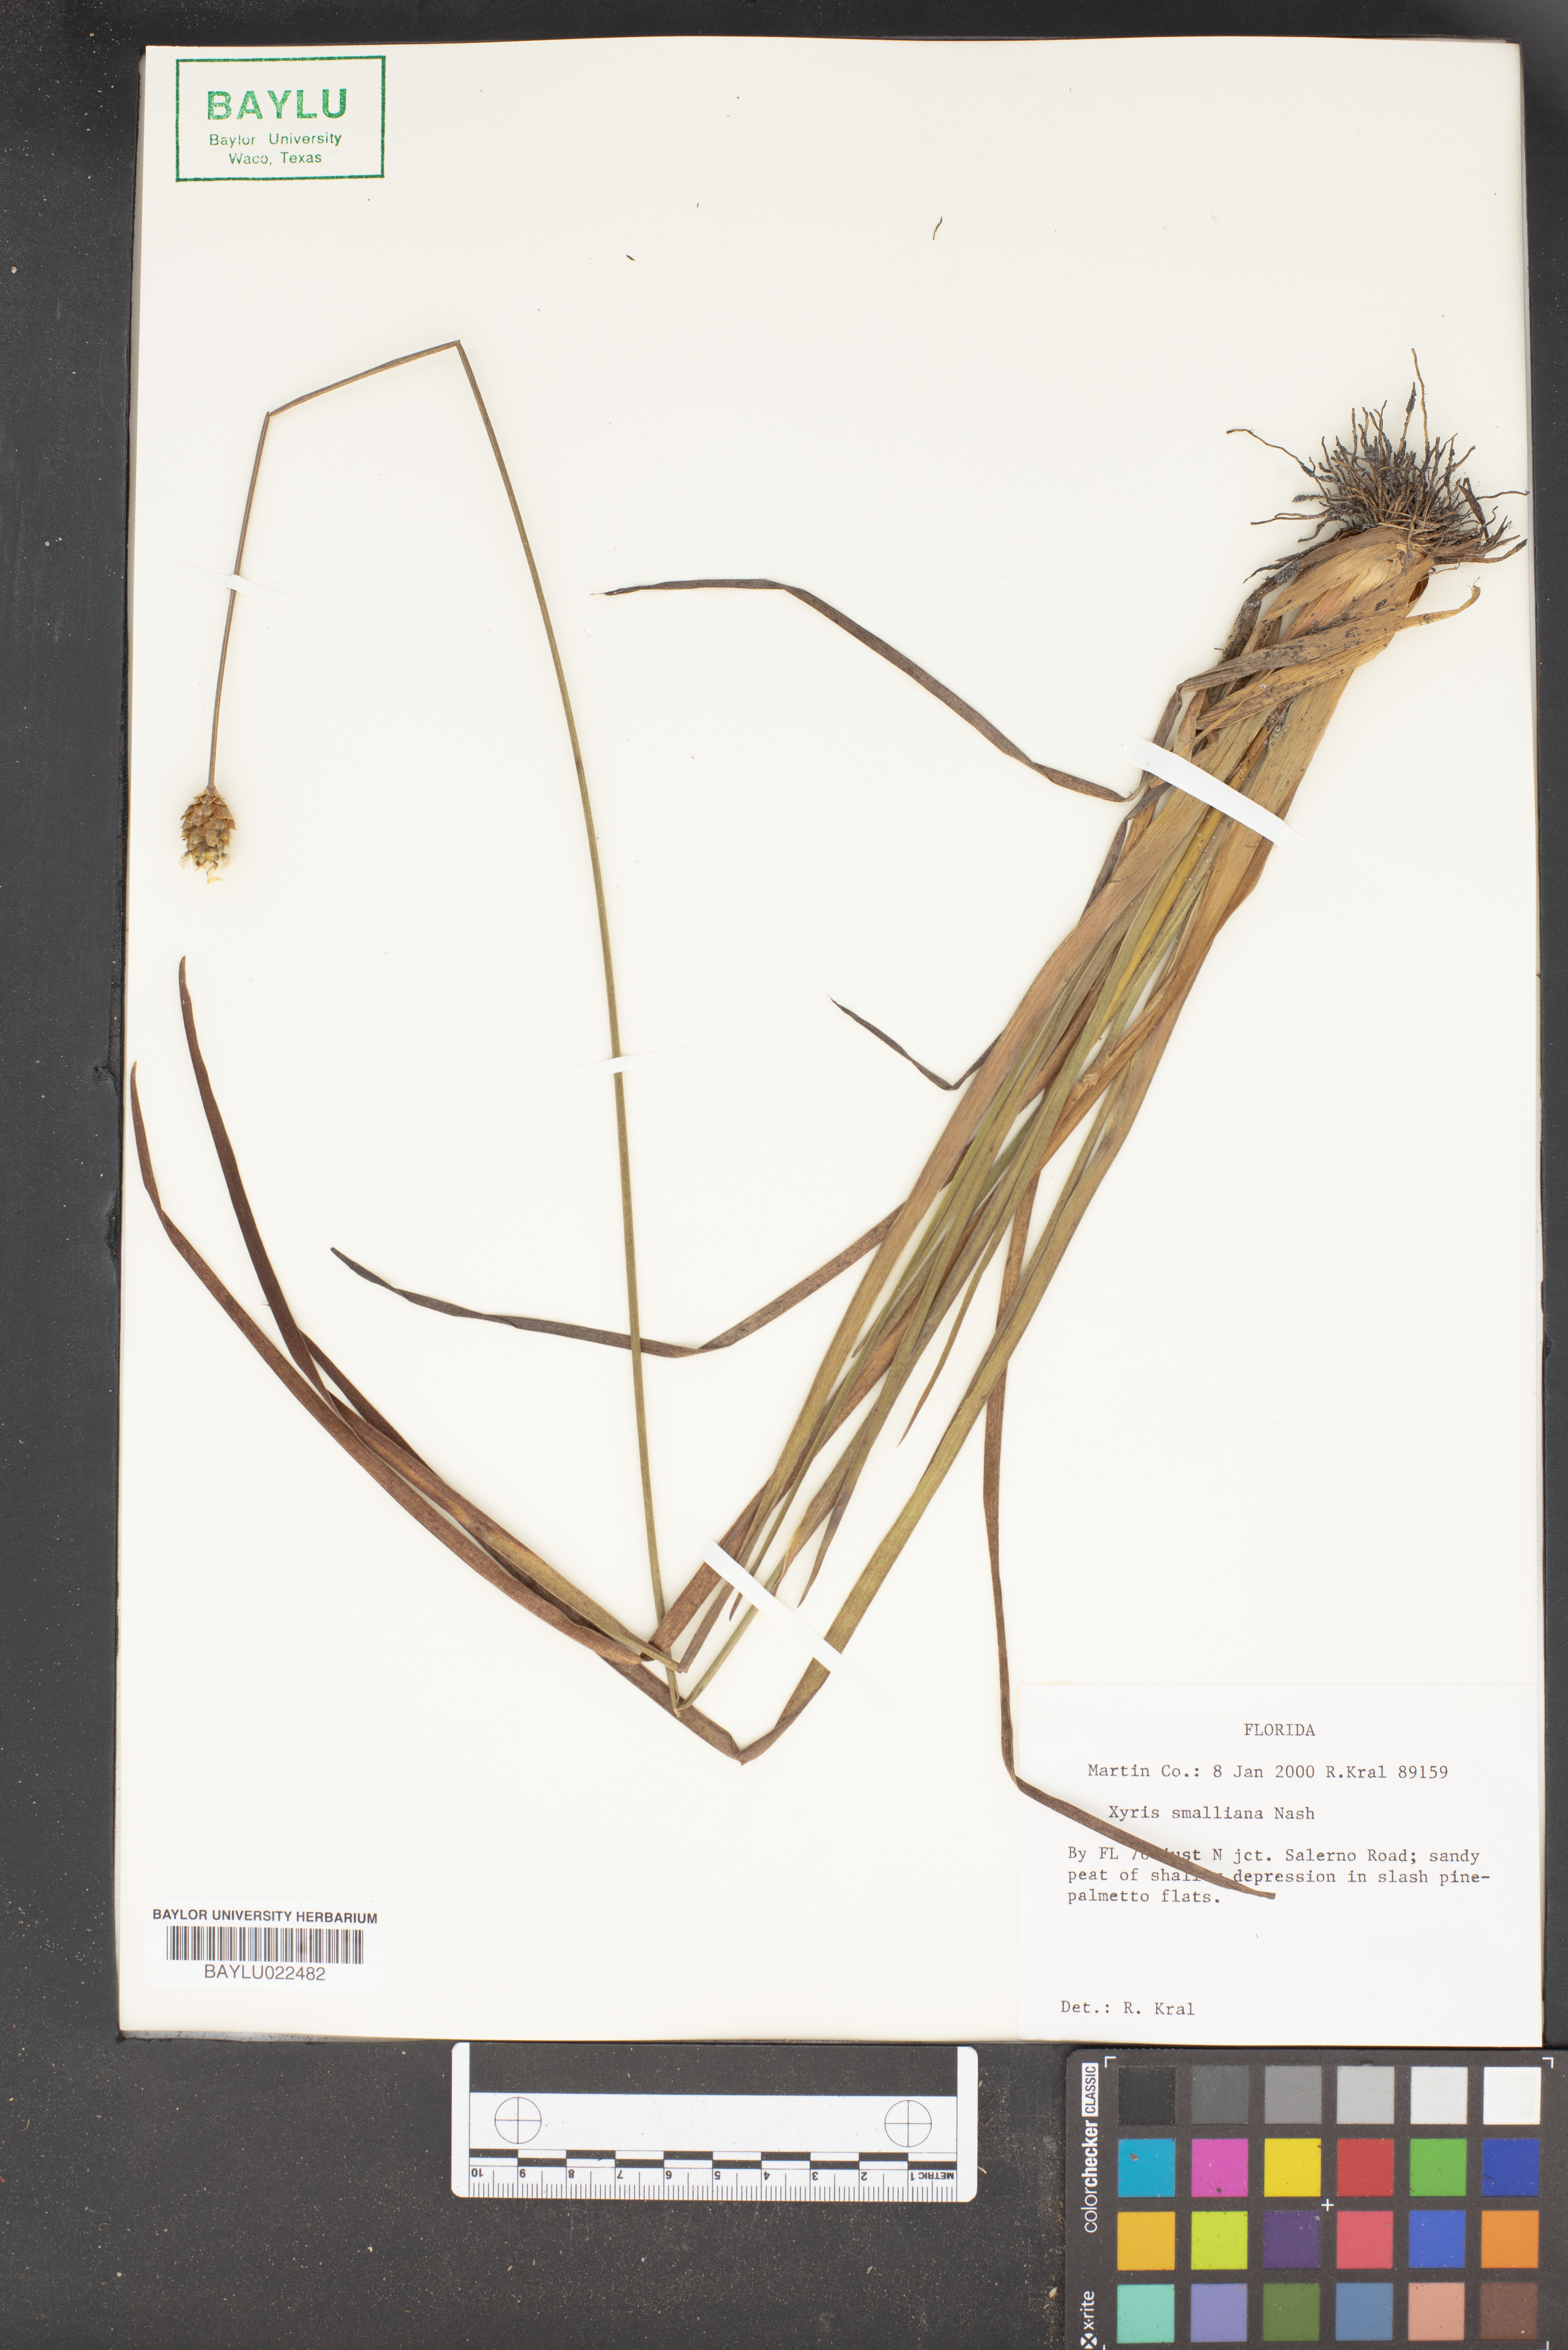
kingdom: Plantae
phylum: Tracheophyta
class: Liliopsida
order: Poales
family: Xyridaceae
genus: Xyris
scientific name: Xyris smalliana
